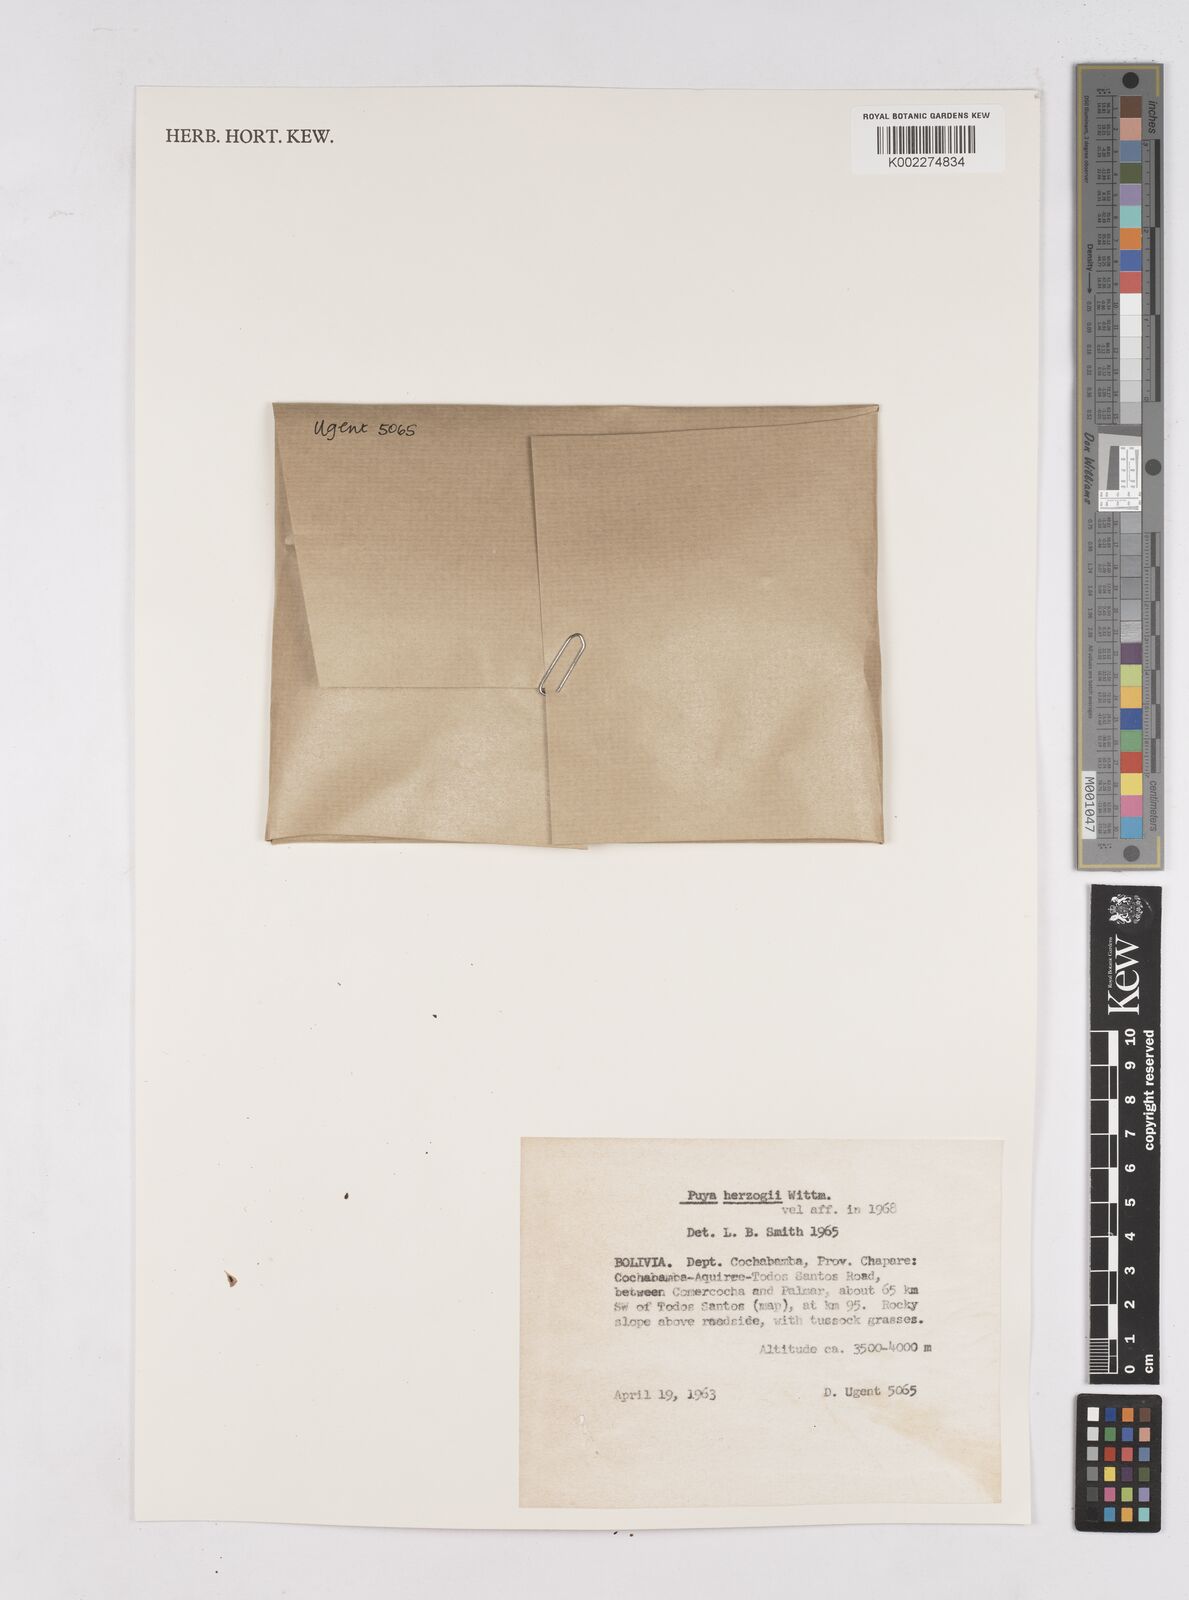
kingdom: Plantae
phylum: Tracheophyta
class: Liliopsida
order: Poales
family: Bromeliaceae
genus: Puya
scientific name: Puya herzogii
